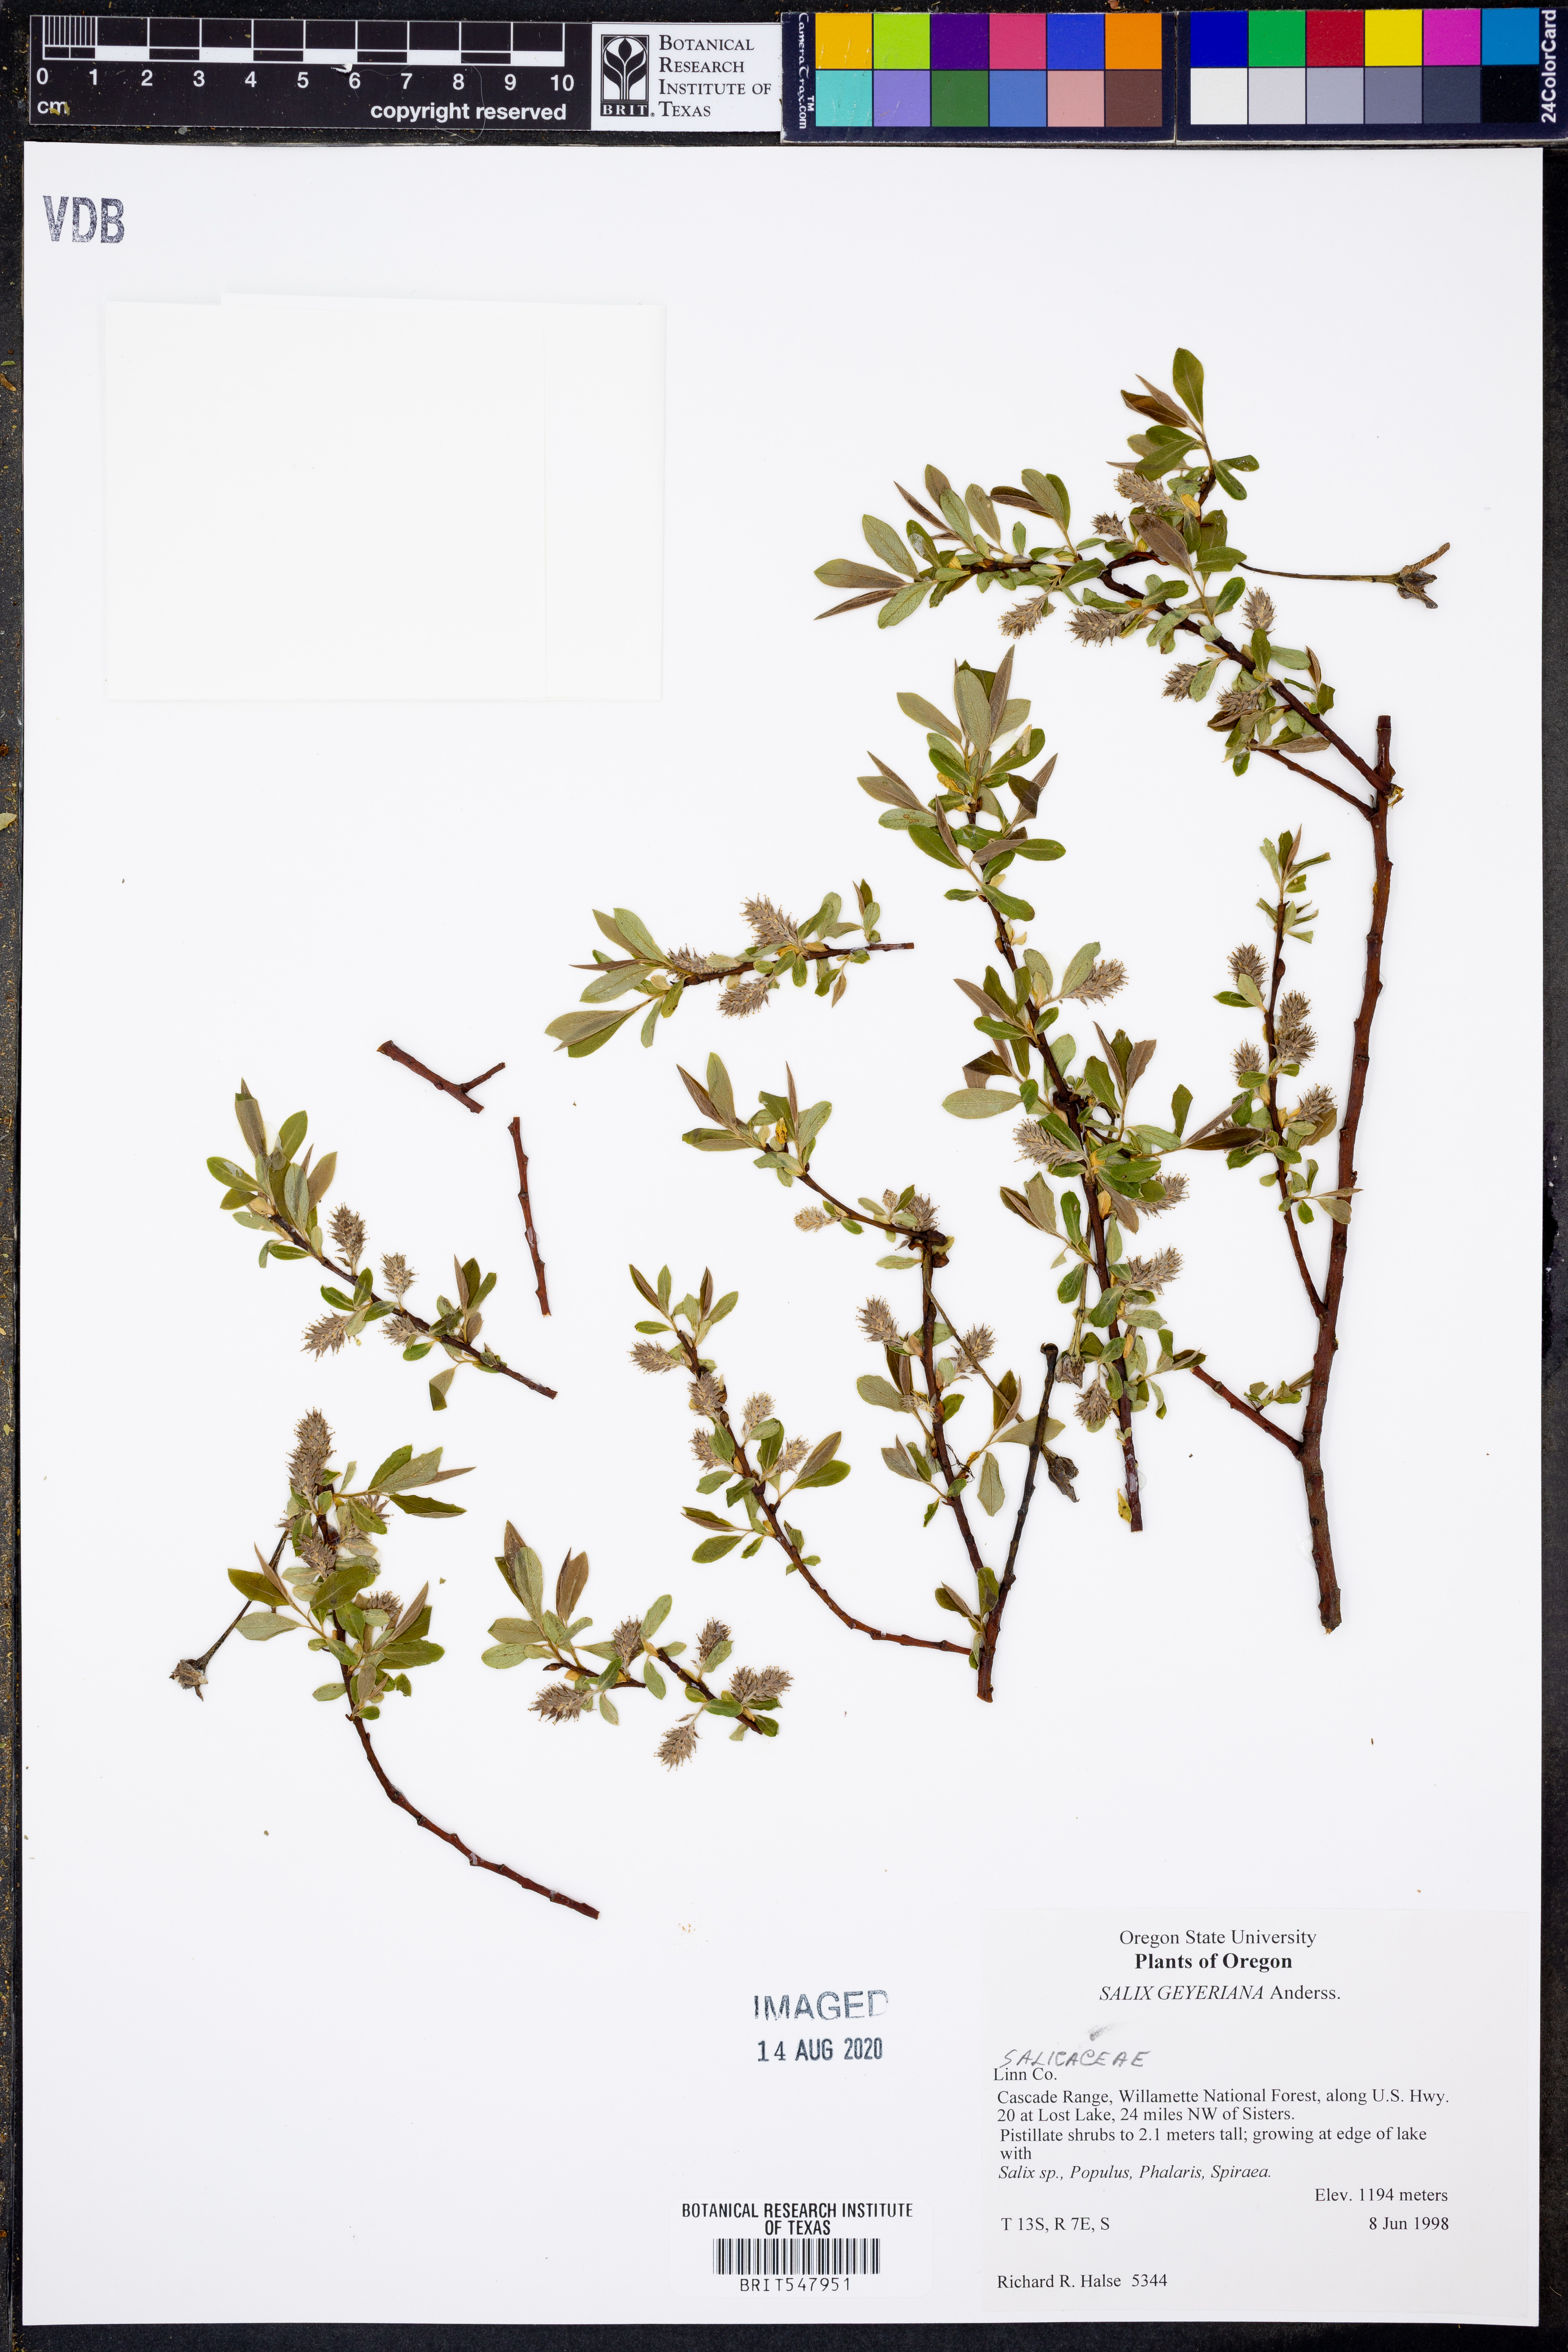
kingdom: Plantae
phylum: Tracheophyta
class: Magnoliopsida
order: Malpighiales
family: Salicaceae
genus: Salix
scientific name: Salix geyeriana
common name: Geyer's willow
